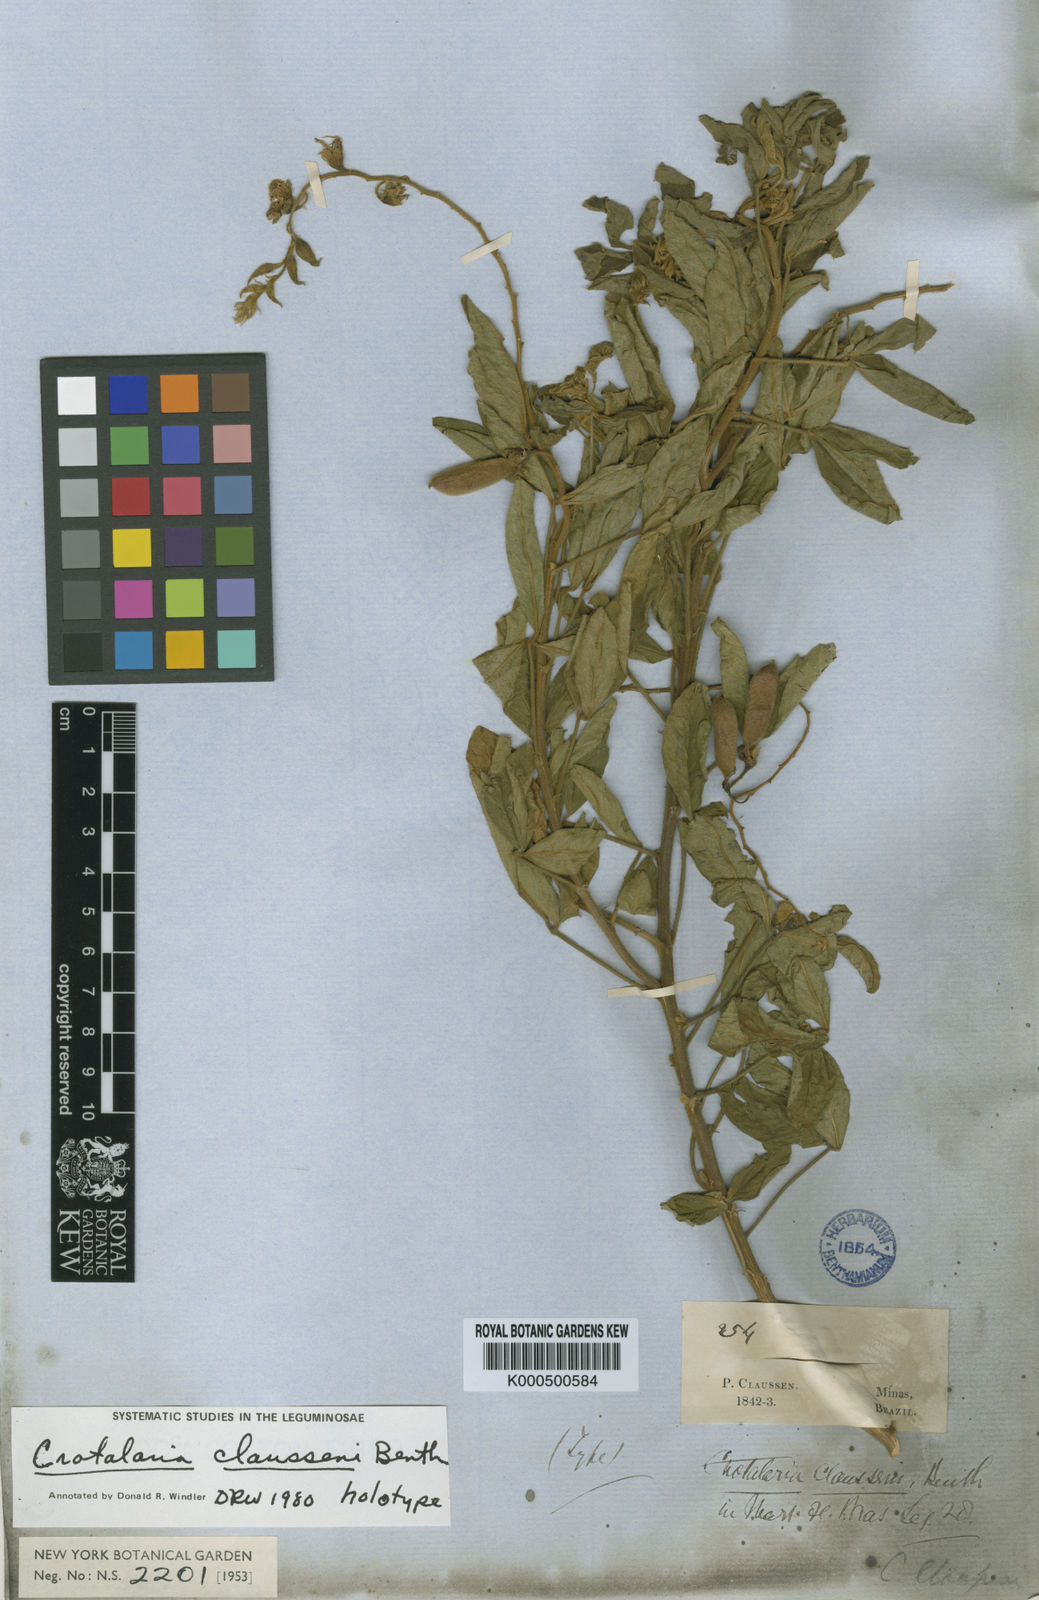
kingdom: Plantae
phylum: Tracheophyta
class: Magnoliopsida
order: Fabales
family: Fabaceae
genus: Crotalaria
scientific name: Crotalaria claussenii
